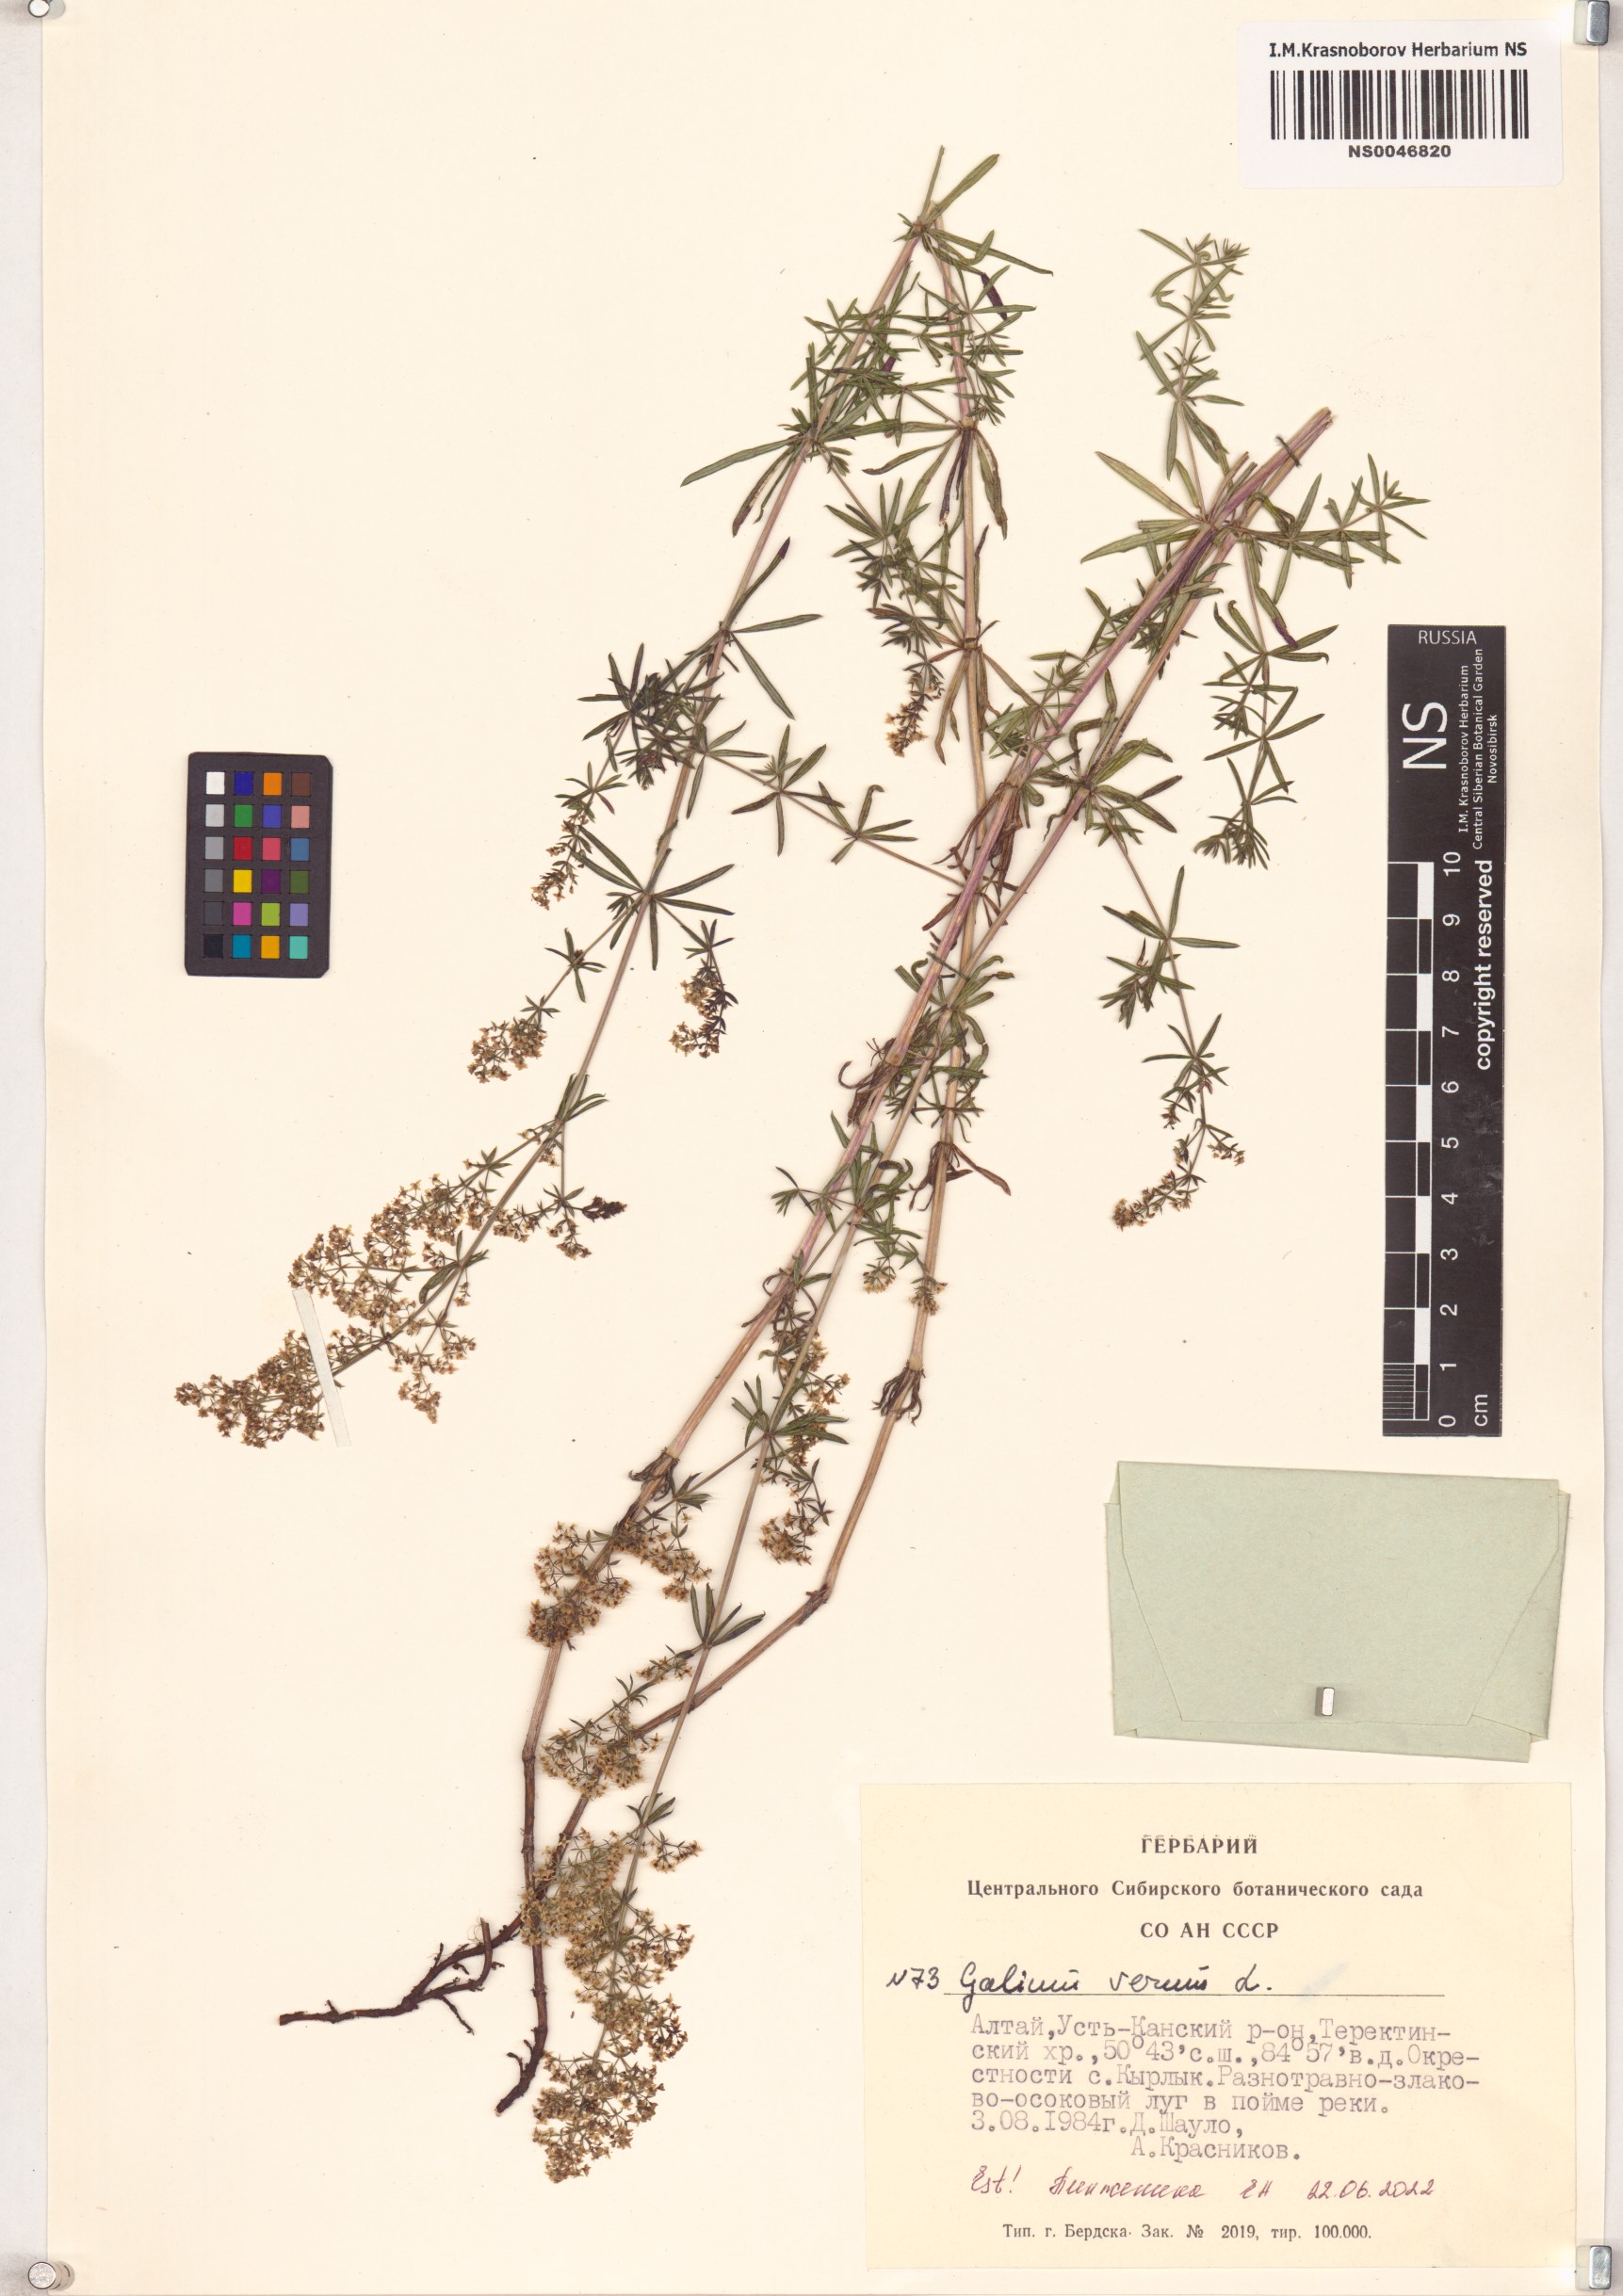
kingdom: Plantae
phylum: Tracheophyta
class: Magnoliopsida
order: Gentianales
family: Rubiaceae
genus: Galium
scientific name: Galium verum
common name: Lady's bedstraw
